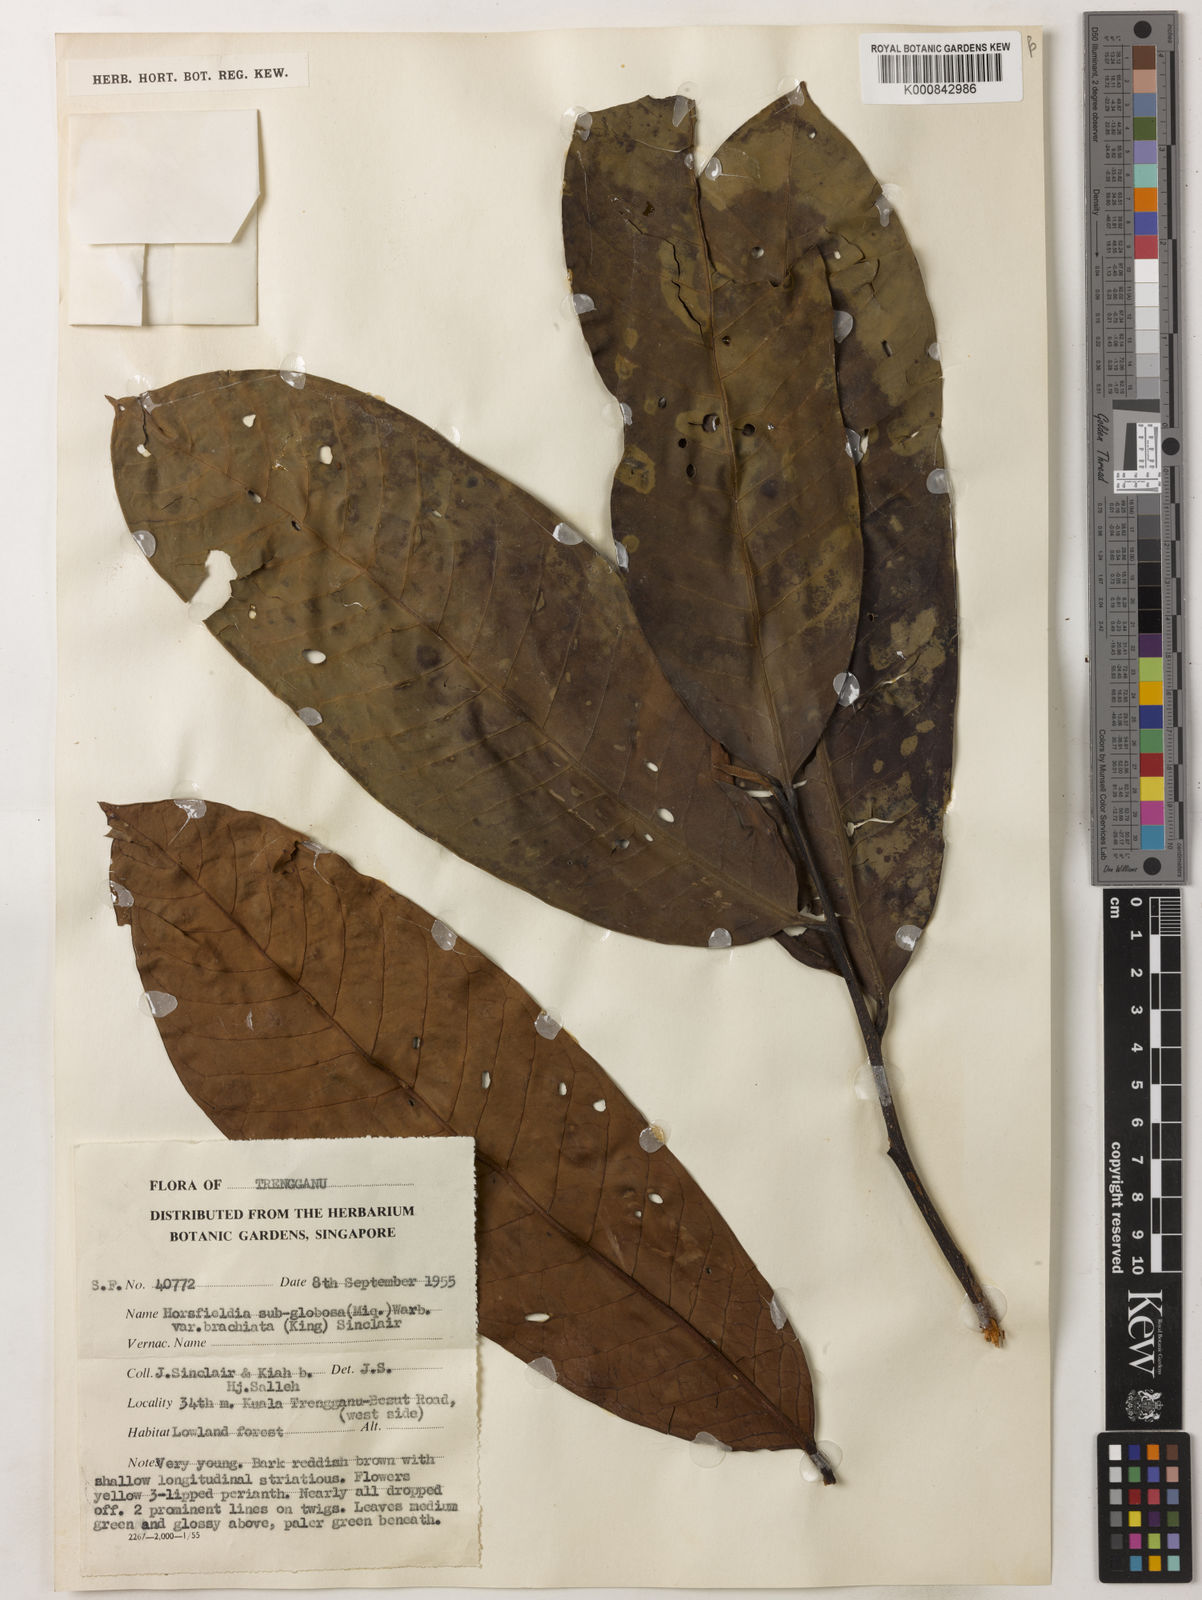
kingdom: Plantae
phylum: Tracheophyta
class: Magnoliopsida
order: Magnoliales
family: Myristicaceae
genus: Horsfieldia
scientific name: Horsfieldia brachiata
